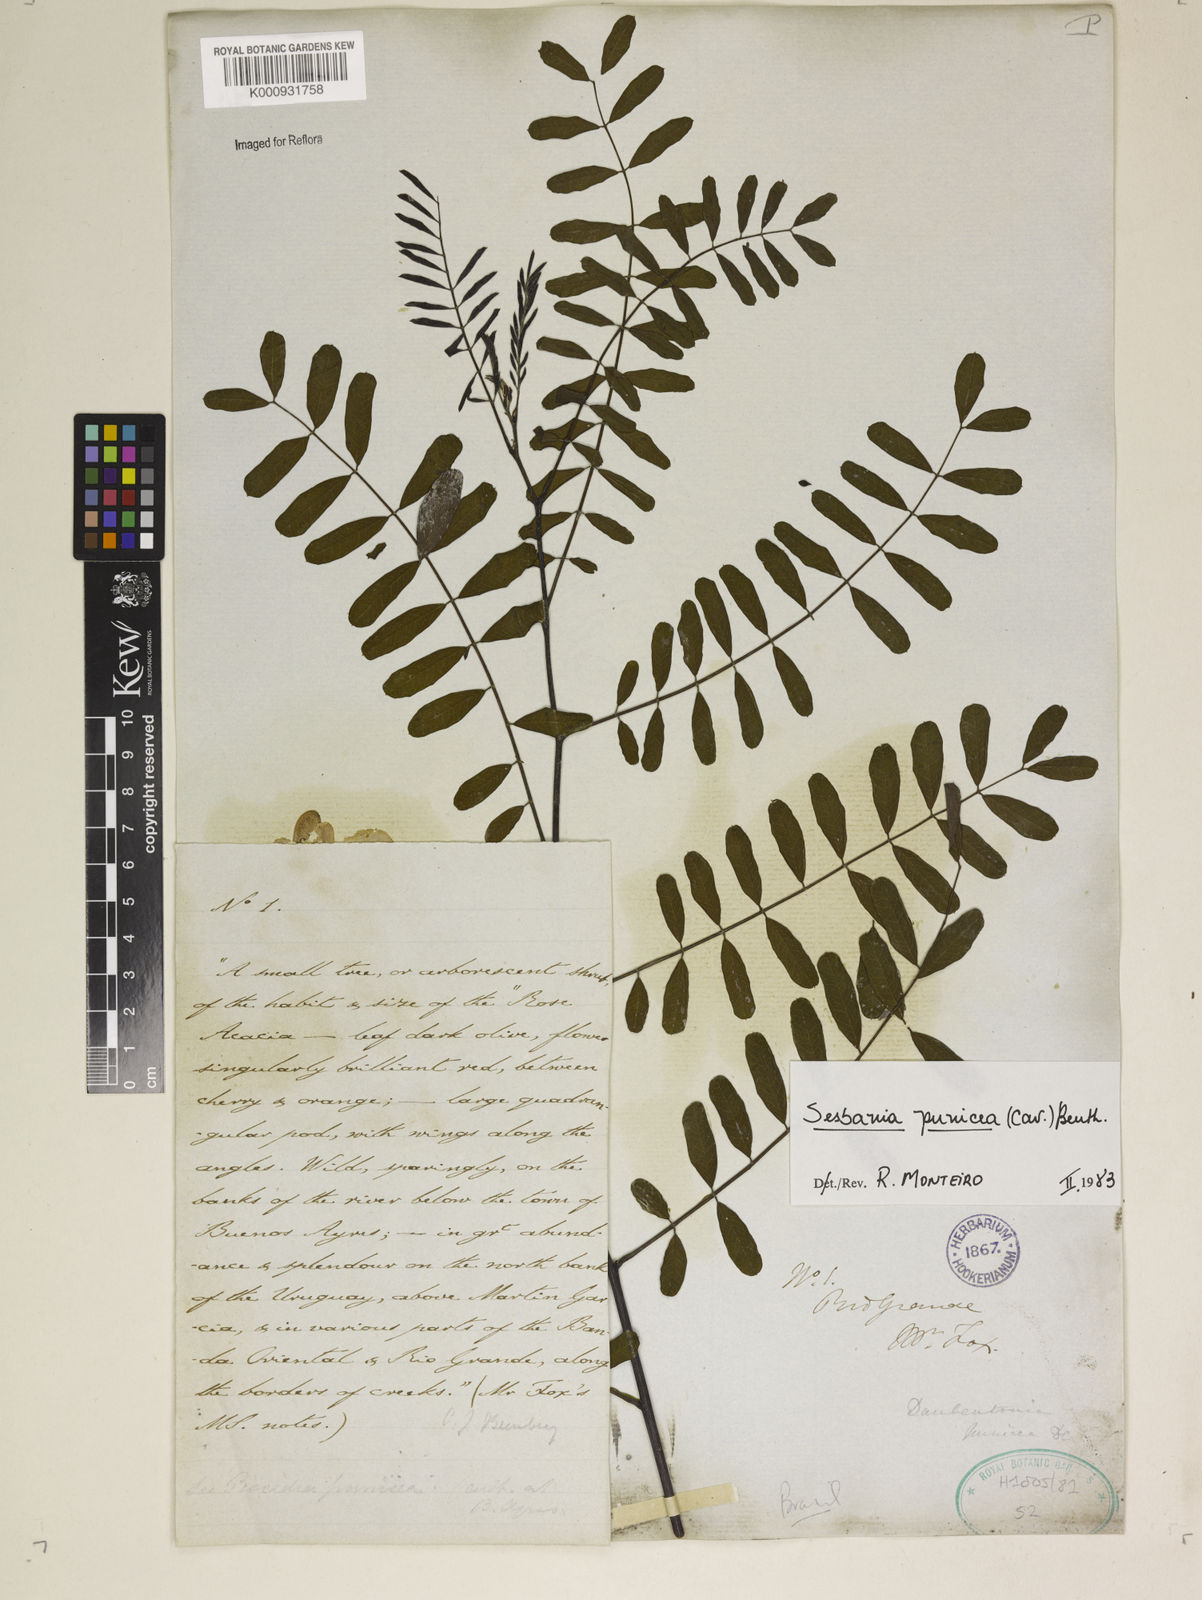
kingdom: Plantae
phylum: Tracheophyta
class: Magnoliopsida
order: Fabales
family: Fabaceae
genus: Sesbania
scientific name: Sesbania punicea
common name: Rattlebox
